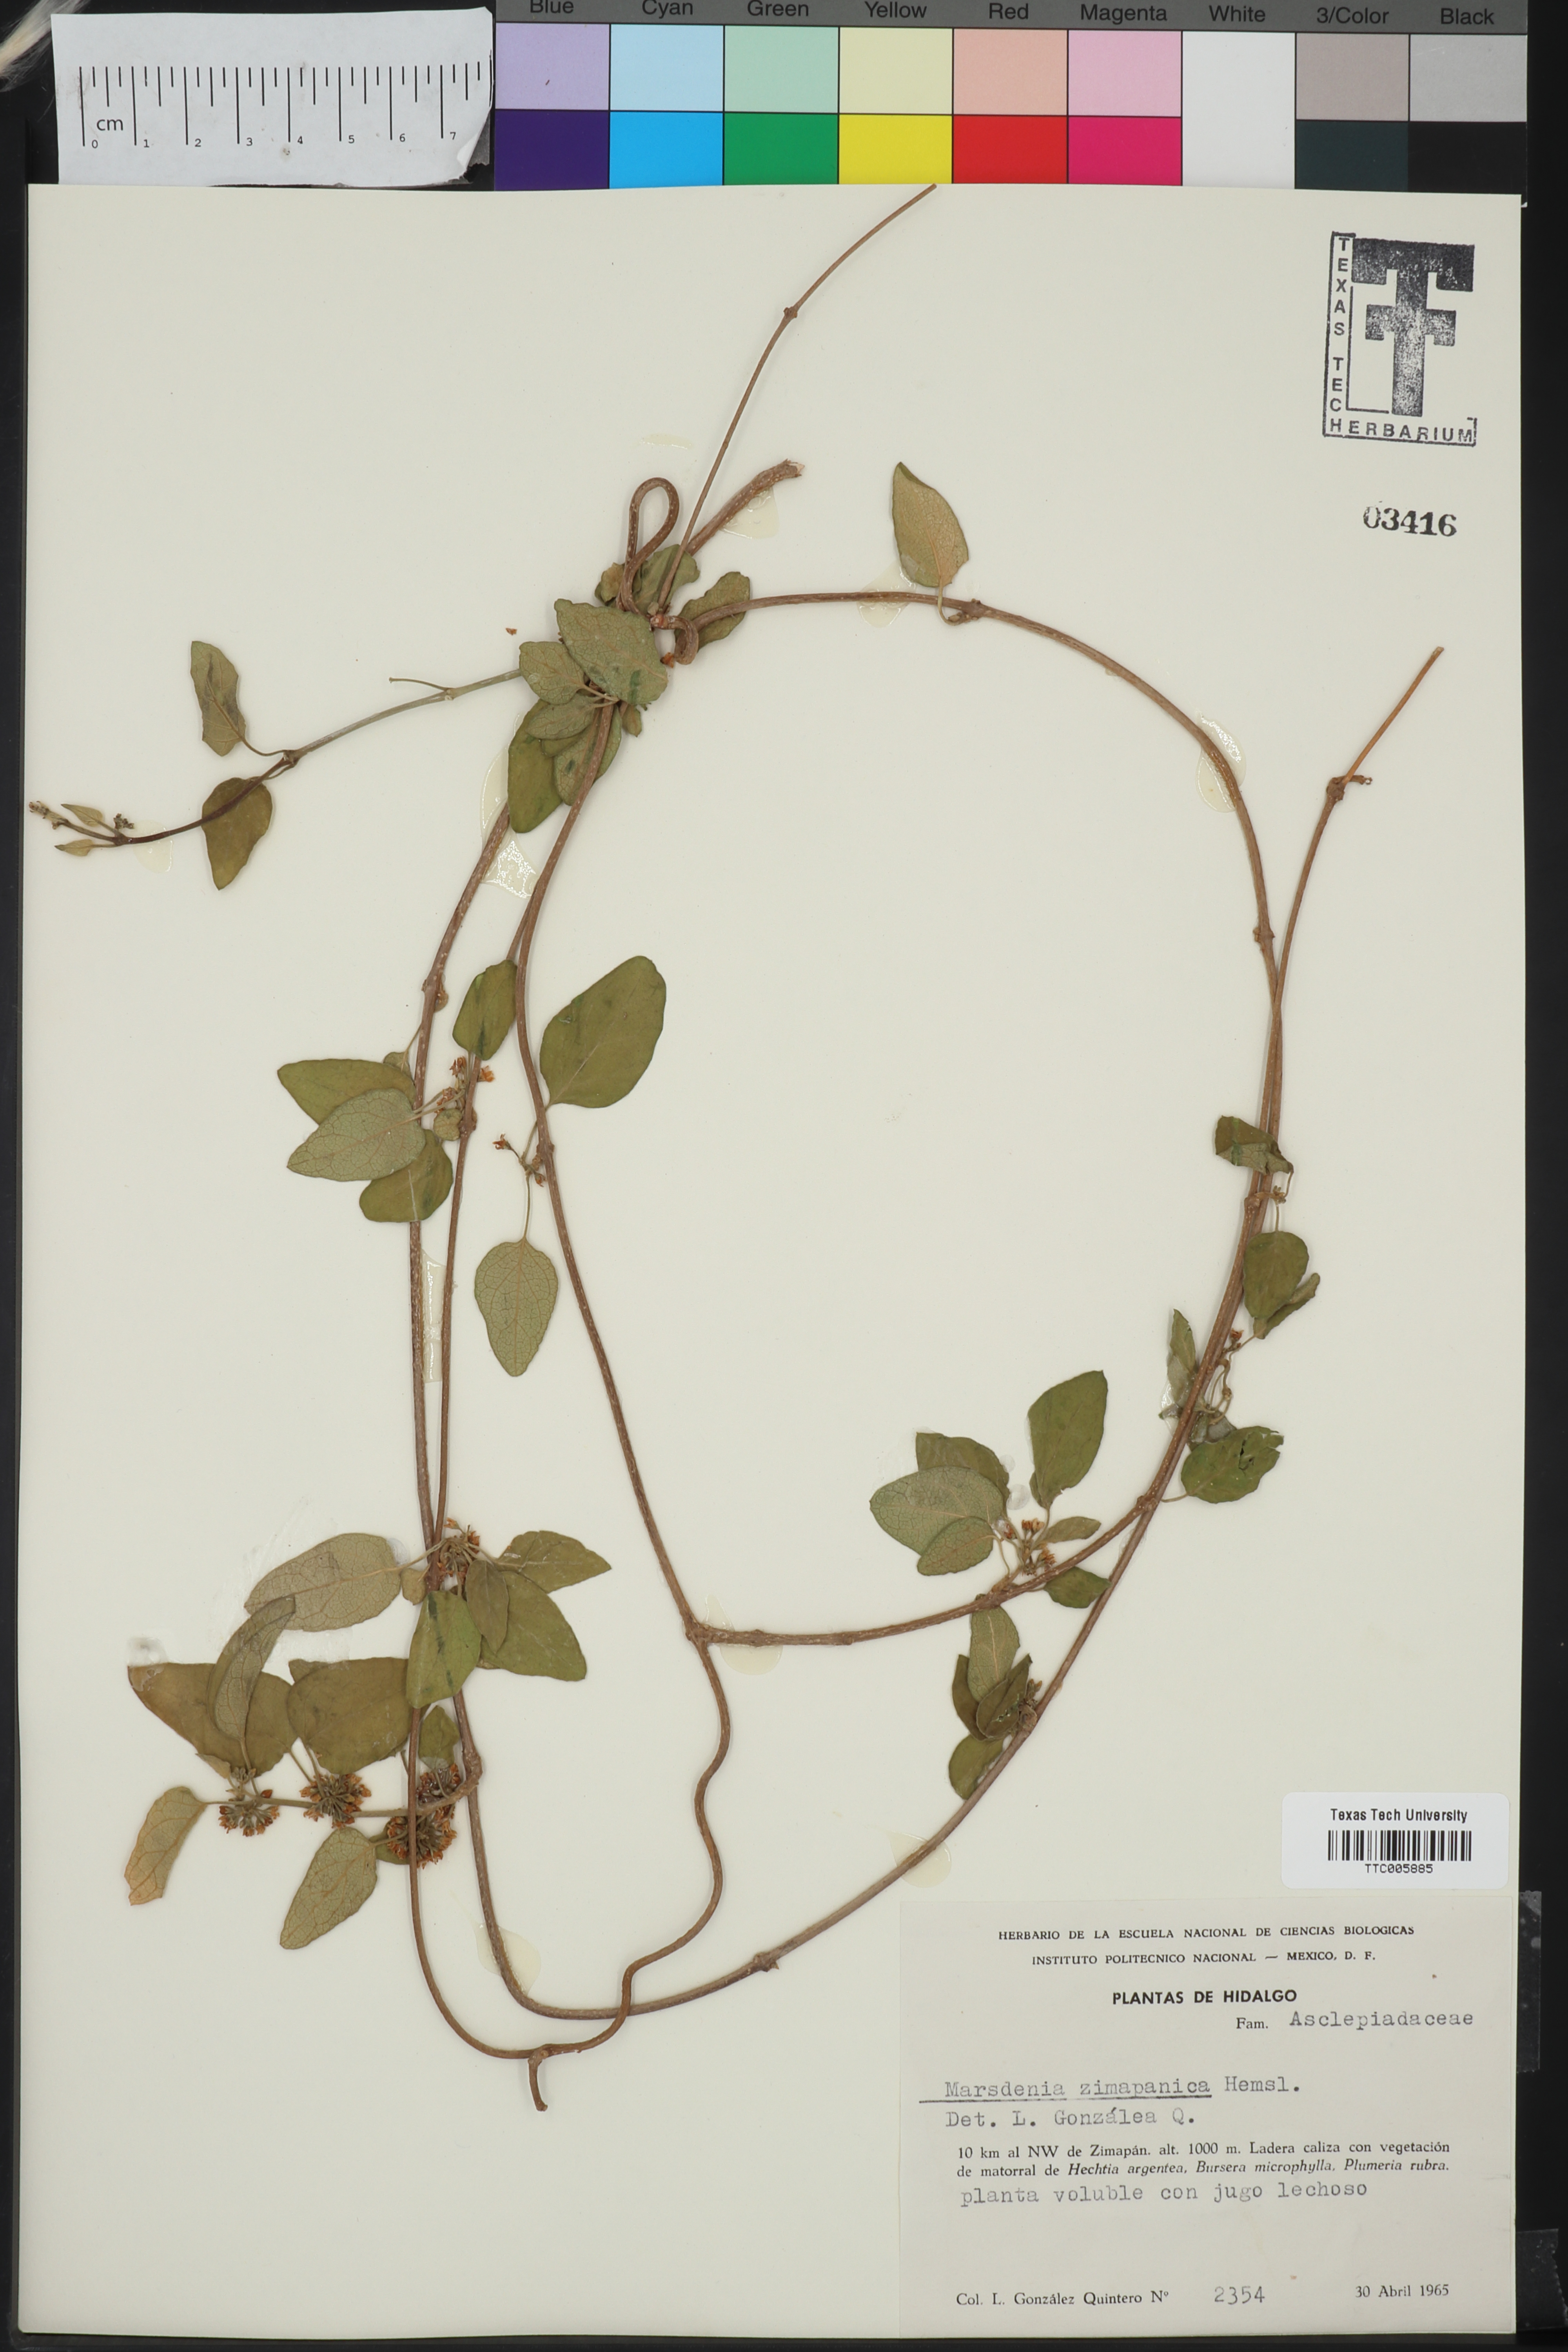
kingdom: Plantae
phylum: Tracheophyta
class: Magnoliopsida
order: Gentianales
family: Apocynaceae
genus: Ruehssia
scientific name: Ruehssia zimapanica
